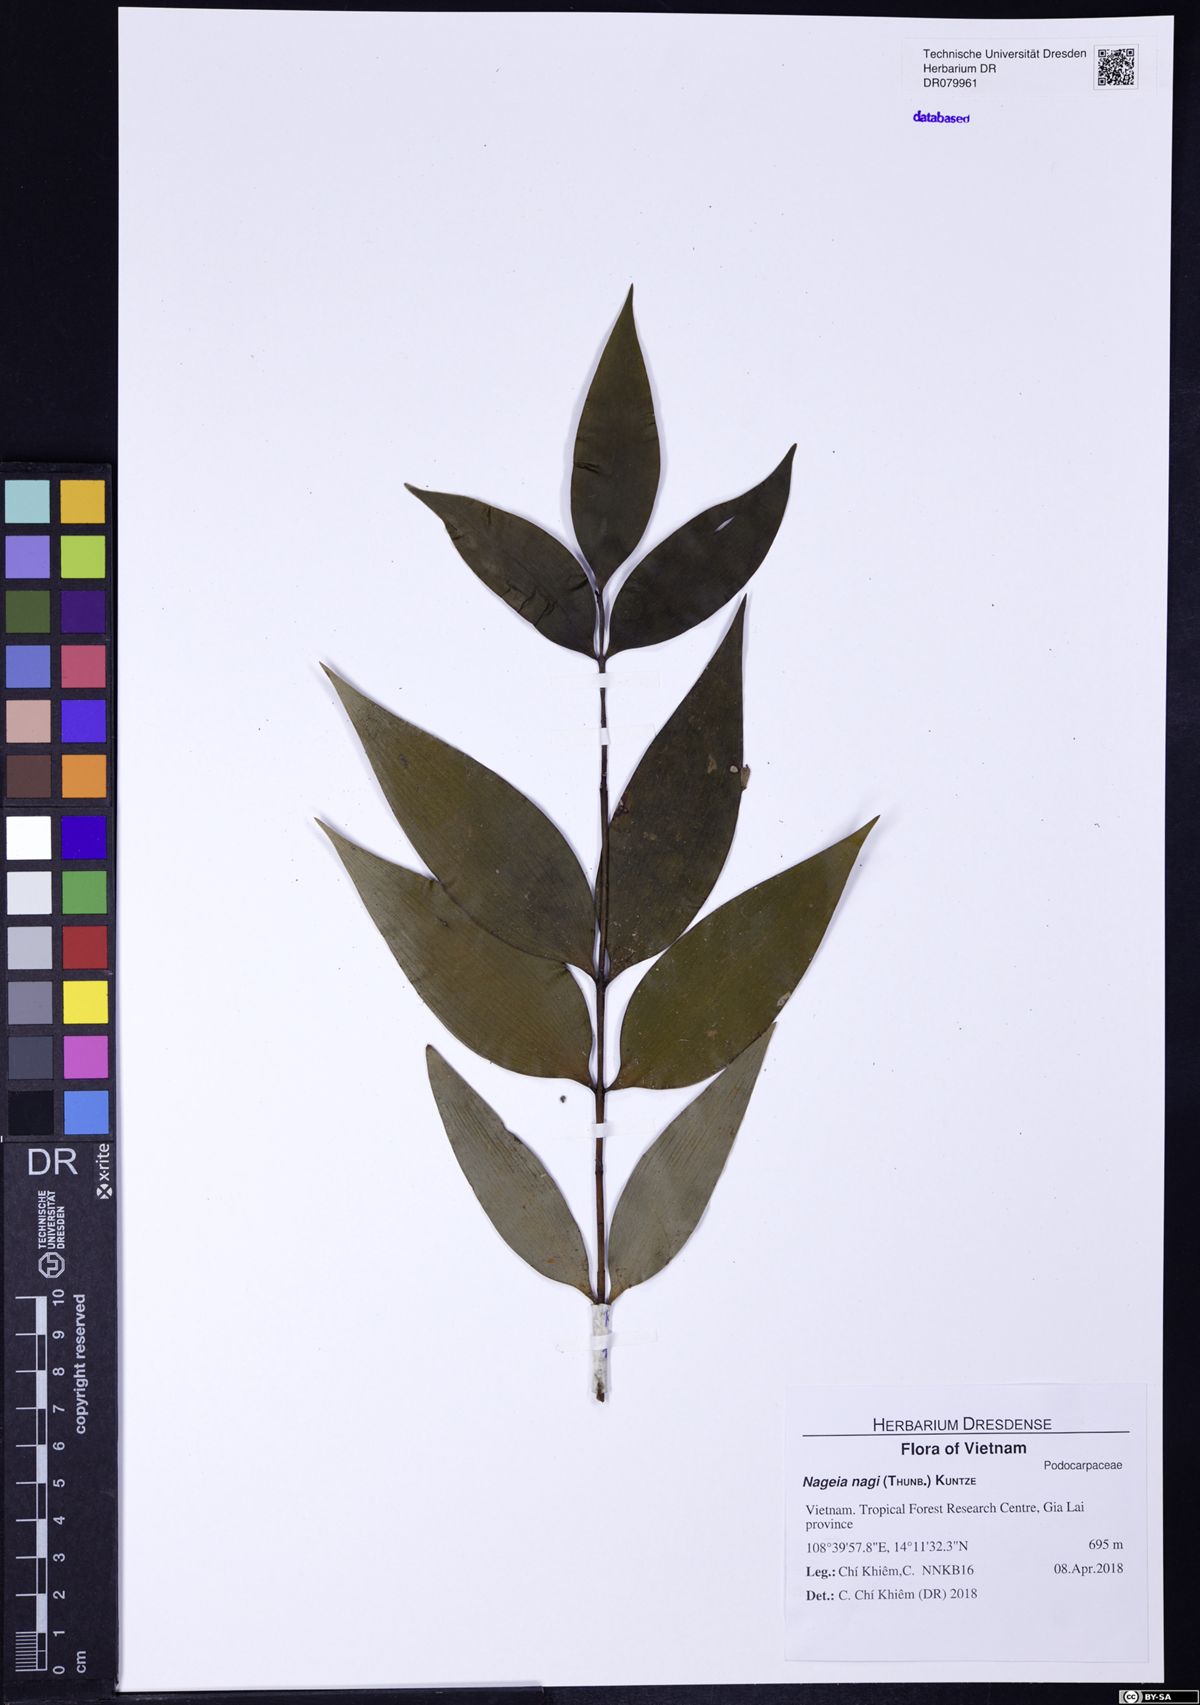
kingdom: Plantae
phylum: Tracheophyta
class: Pinopsida
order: Pinales
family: Podocarpaceae
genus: Nageia
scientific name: Nageia nagi
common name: Kaphal
